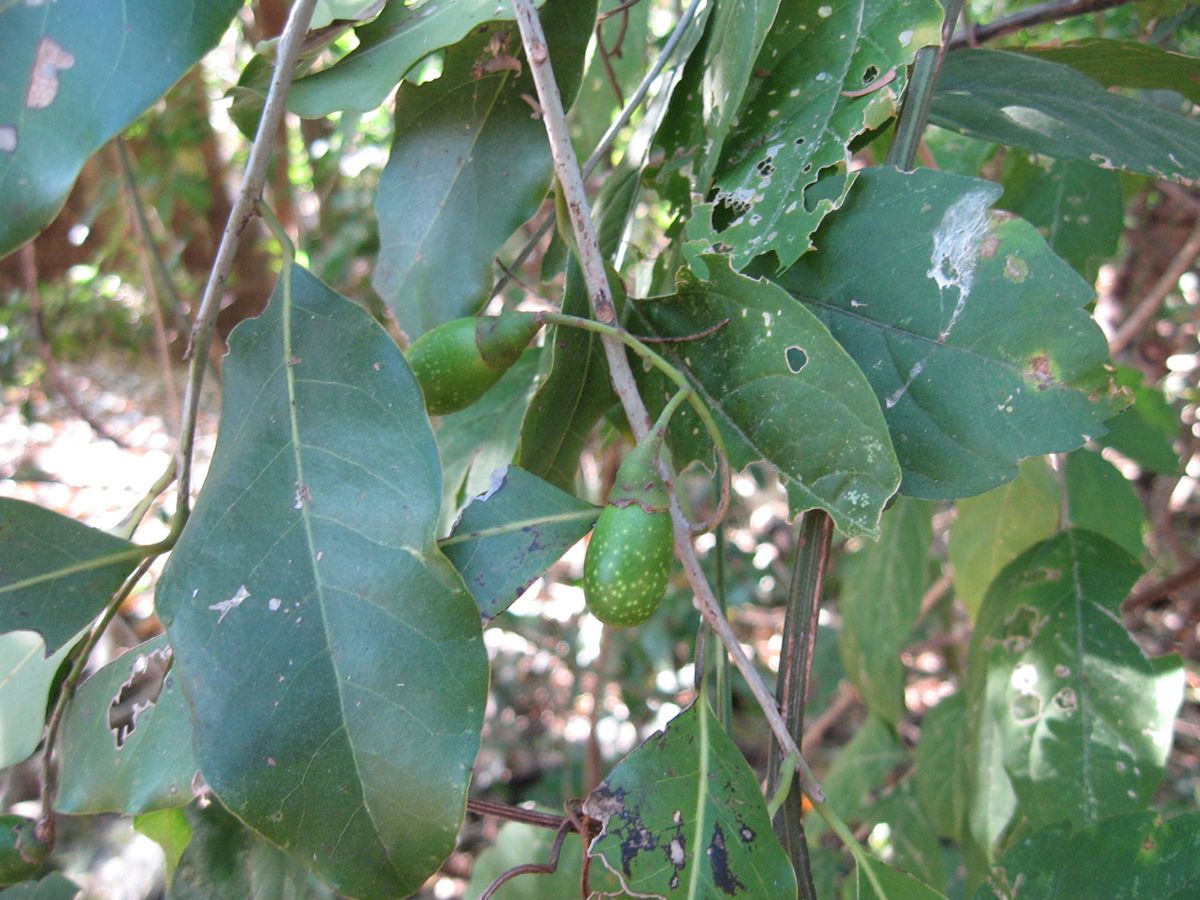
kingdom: Plantae
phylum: Tracheophyta
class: Magnoliopsida
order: Laurales
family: Lauraceae
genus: Mespilodaphne
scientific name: Mespilodaphne veraguensis
